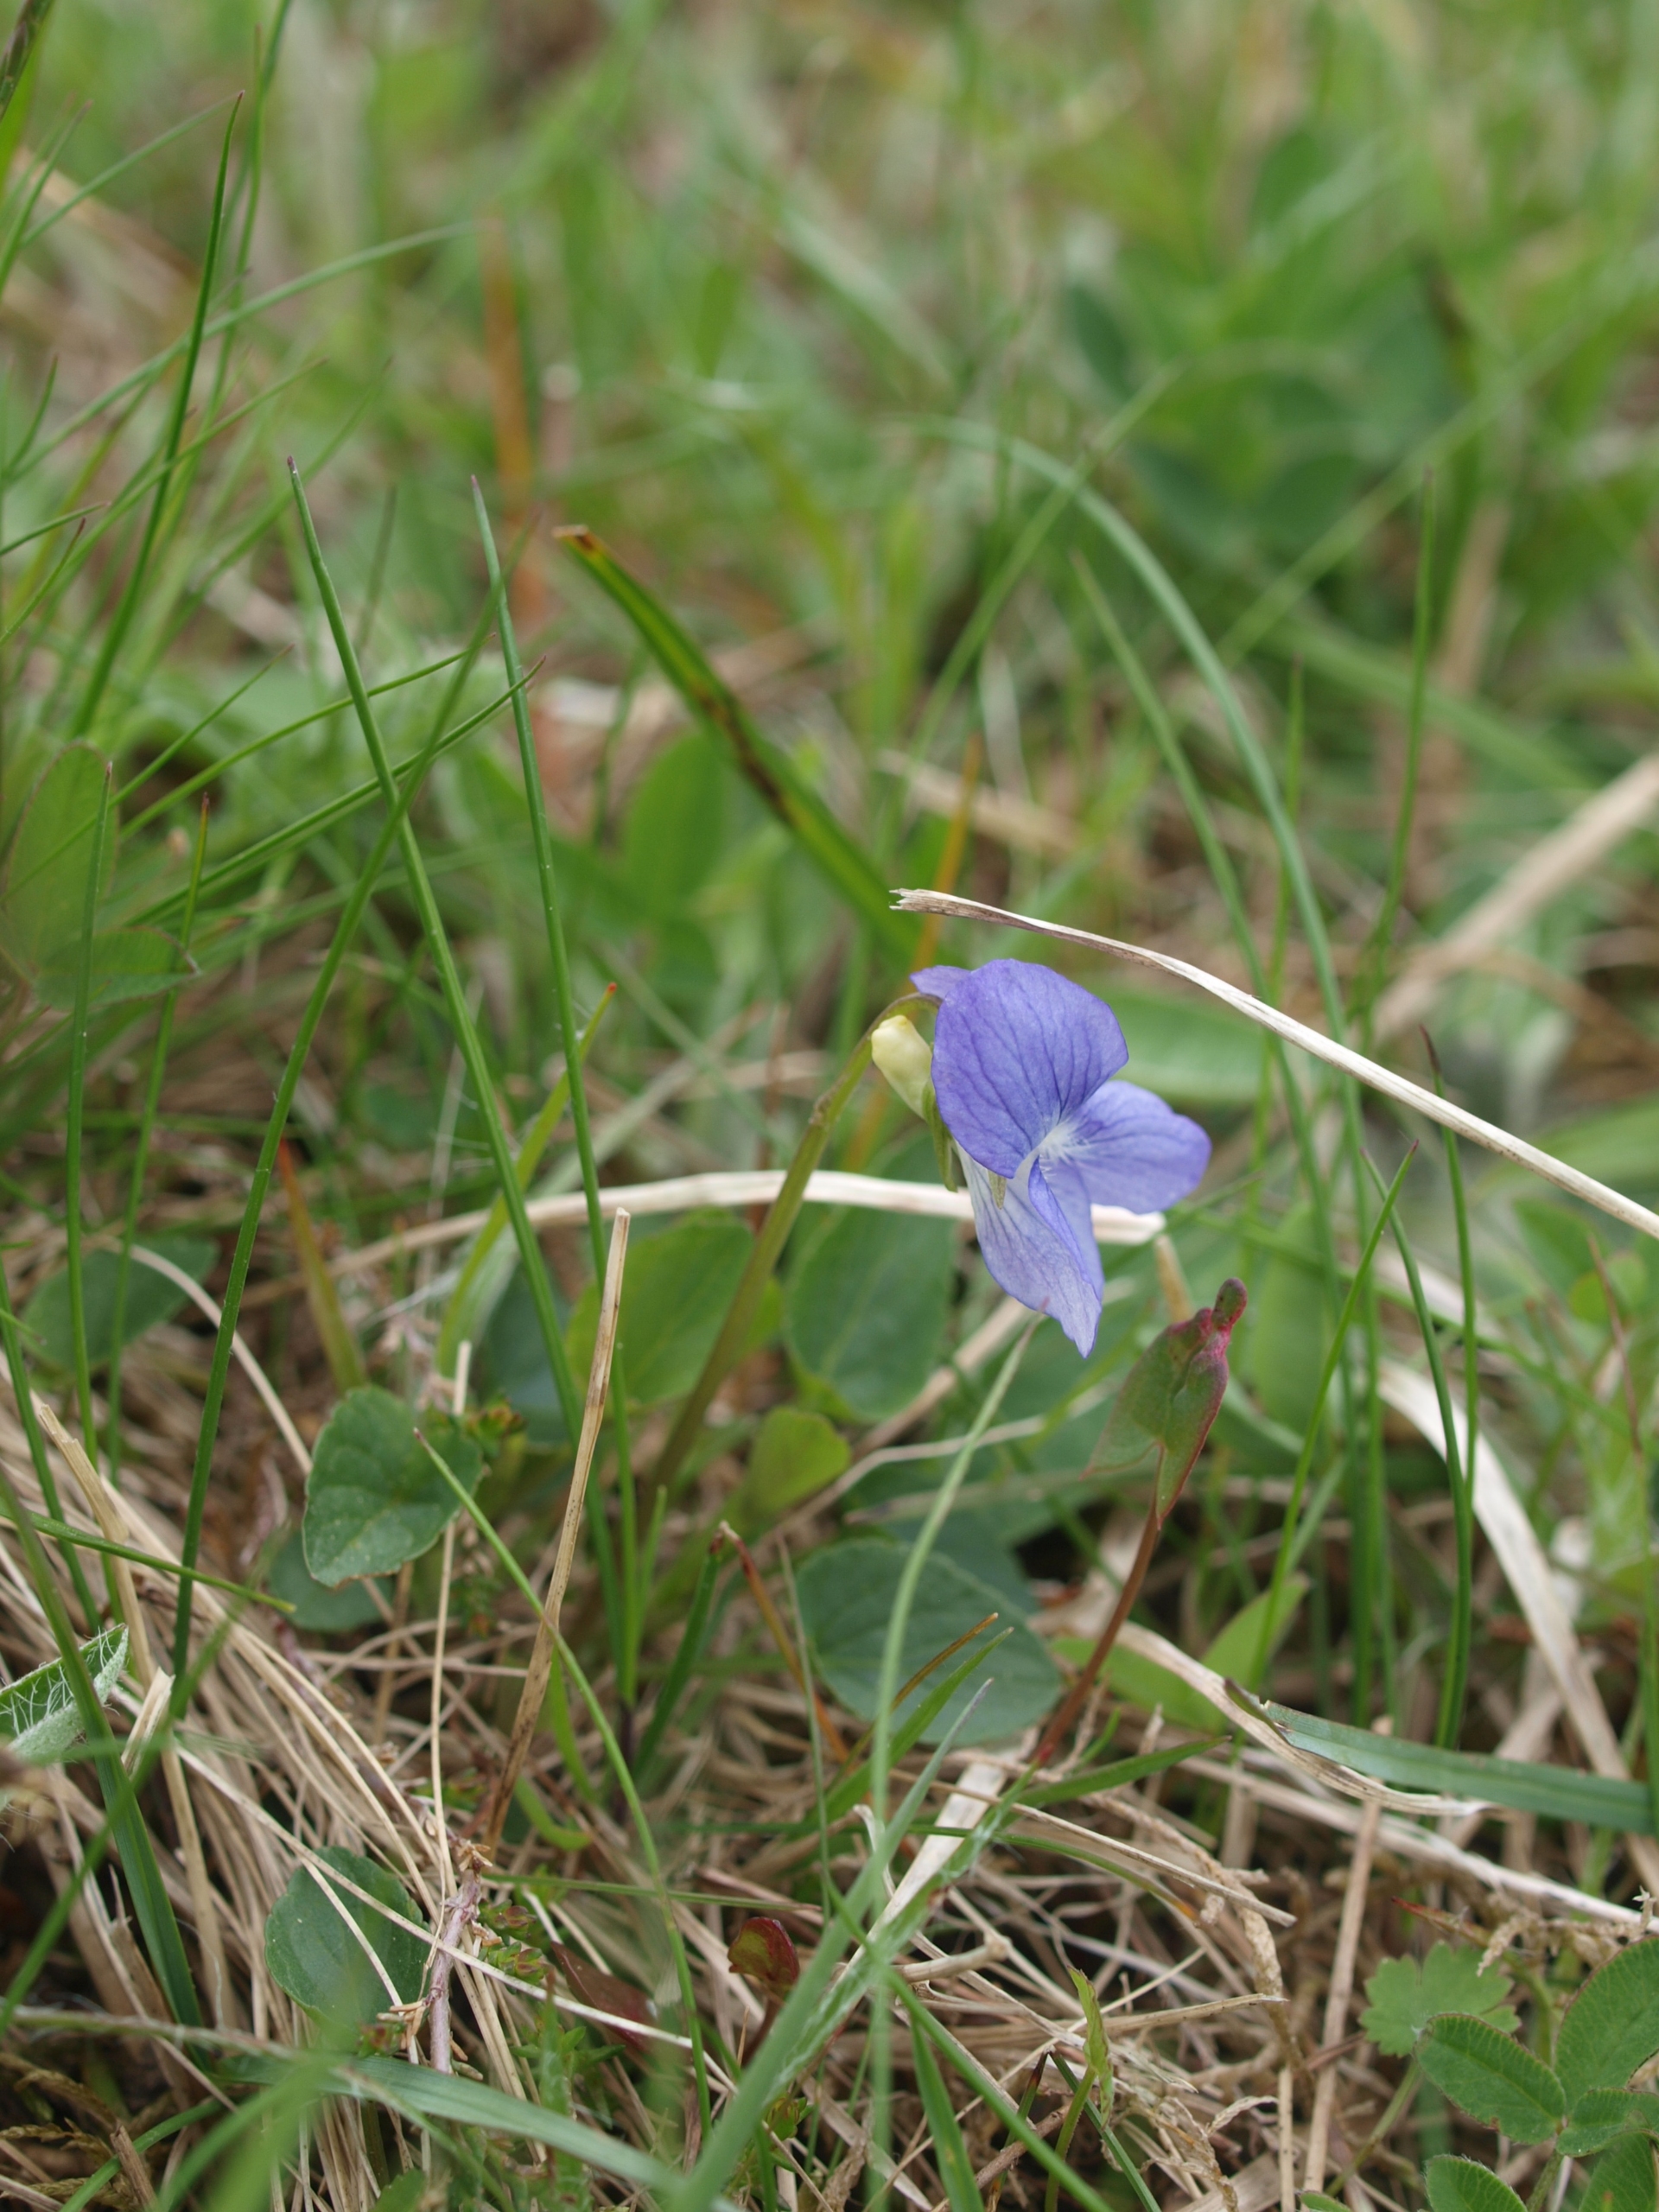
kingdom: Plantae
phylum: Tracheophyta
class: Magnoliopsida
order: Malpighiales
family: Violaceae
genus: Viola
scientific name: Viola canina
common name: Hunde-viol
